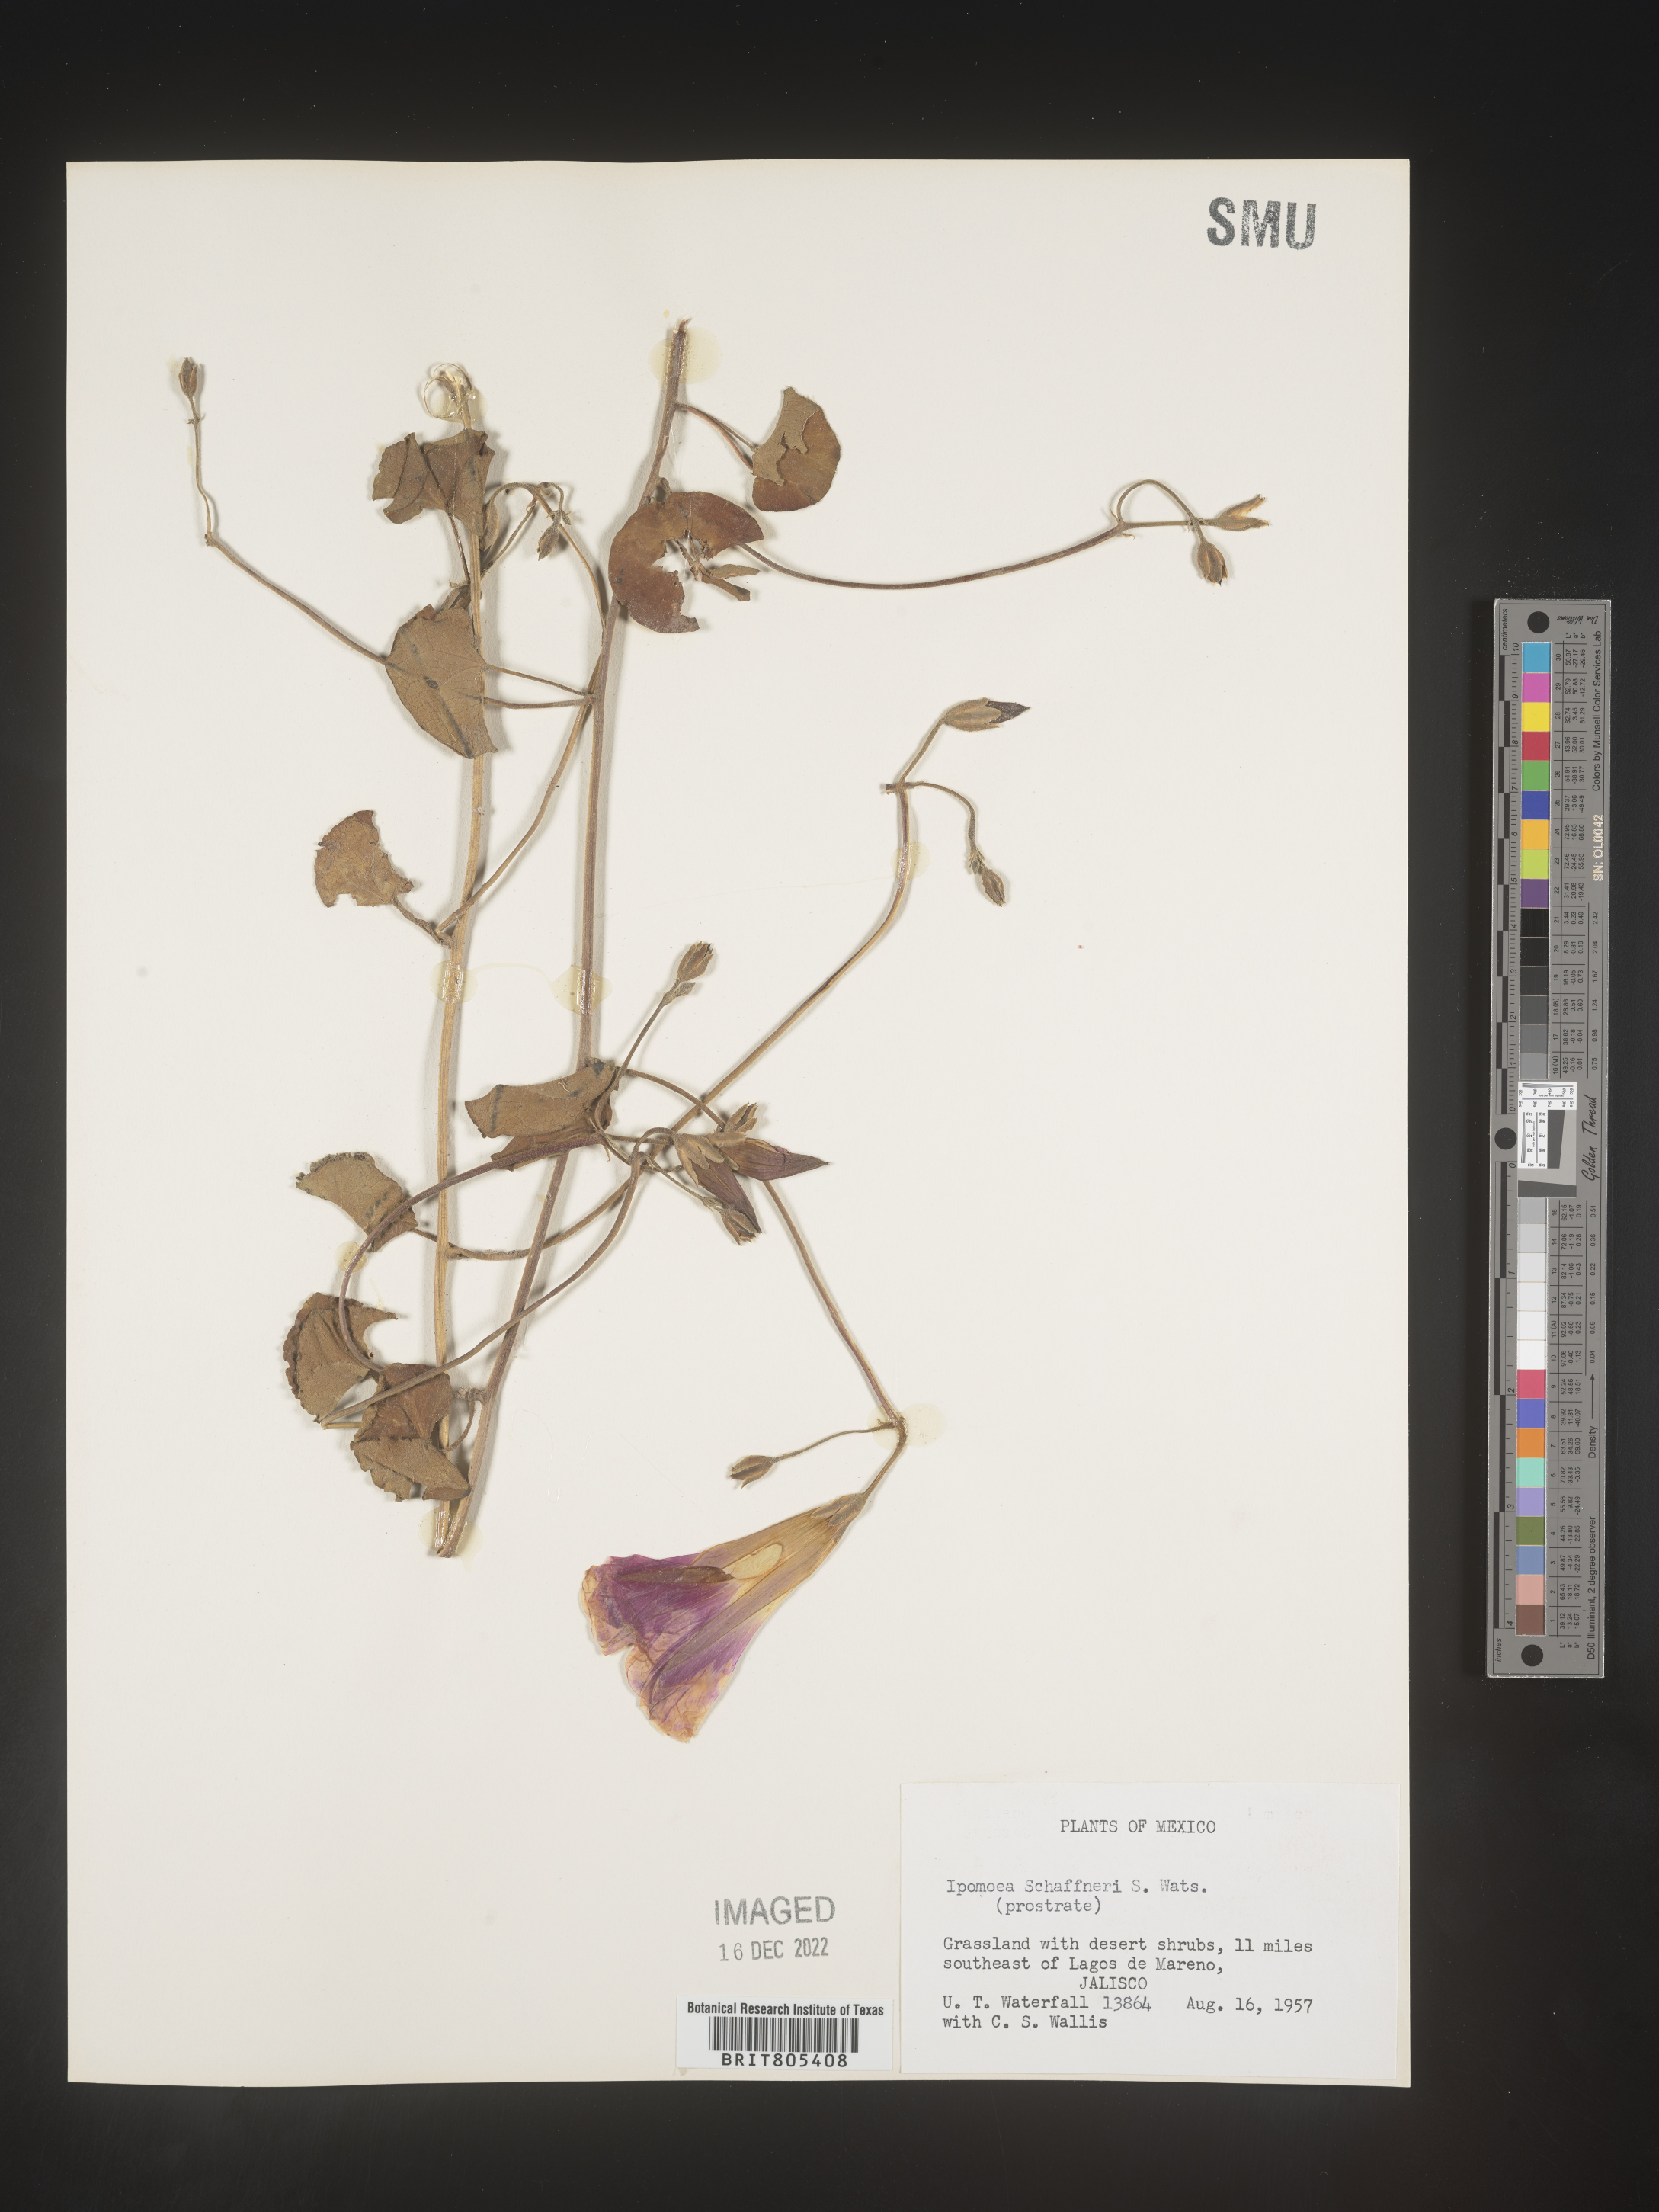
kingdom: Plantae
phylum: Tracheophyta
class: Magnoliopsida
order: Solanales
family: Convolvulaceae
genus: Ipomoea
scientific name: Ipomoea
